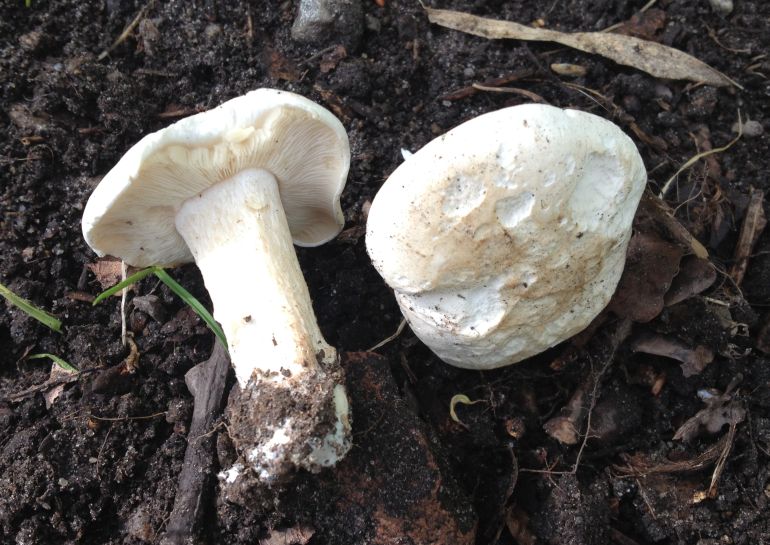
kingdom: Fungi
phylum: Basidiomycota
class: Agaricomycetes
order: Agaricales
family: Lyophyllaceae
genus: Calocybe
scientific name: Calocybe gambosa
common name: vårmusseron
